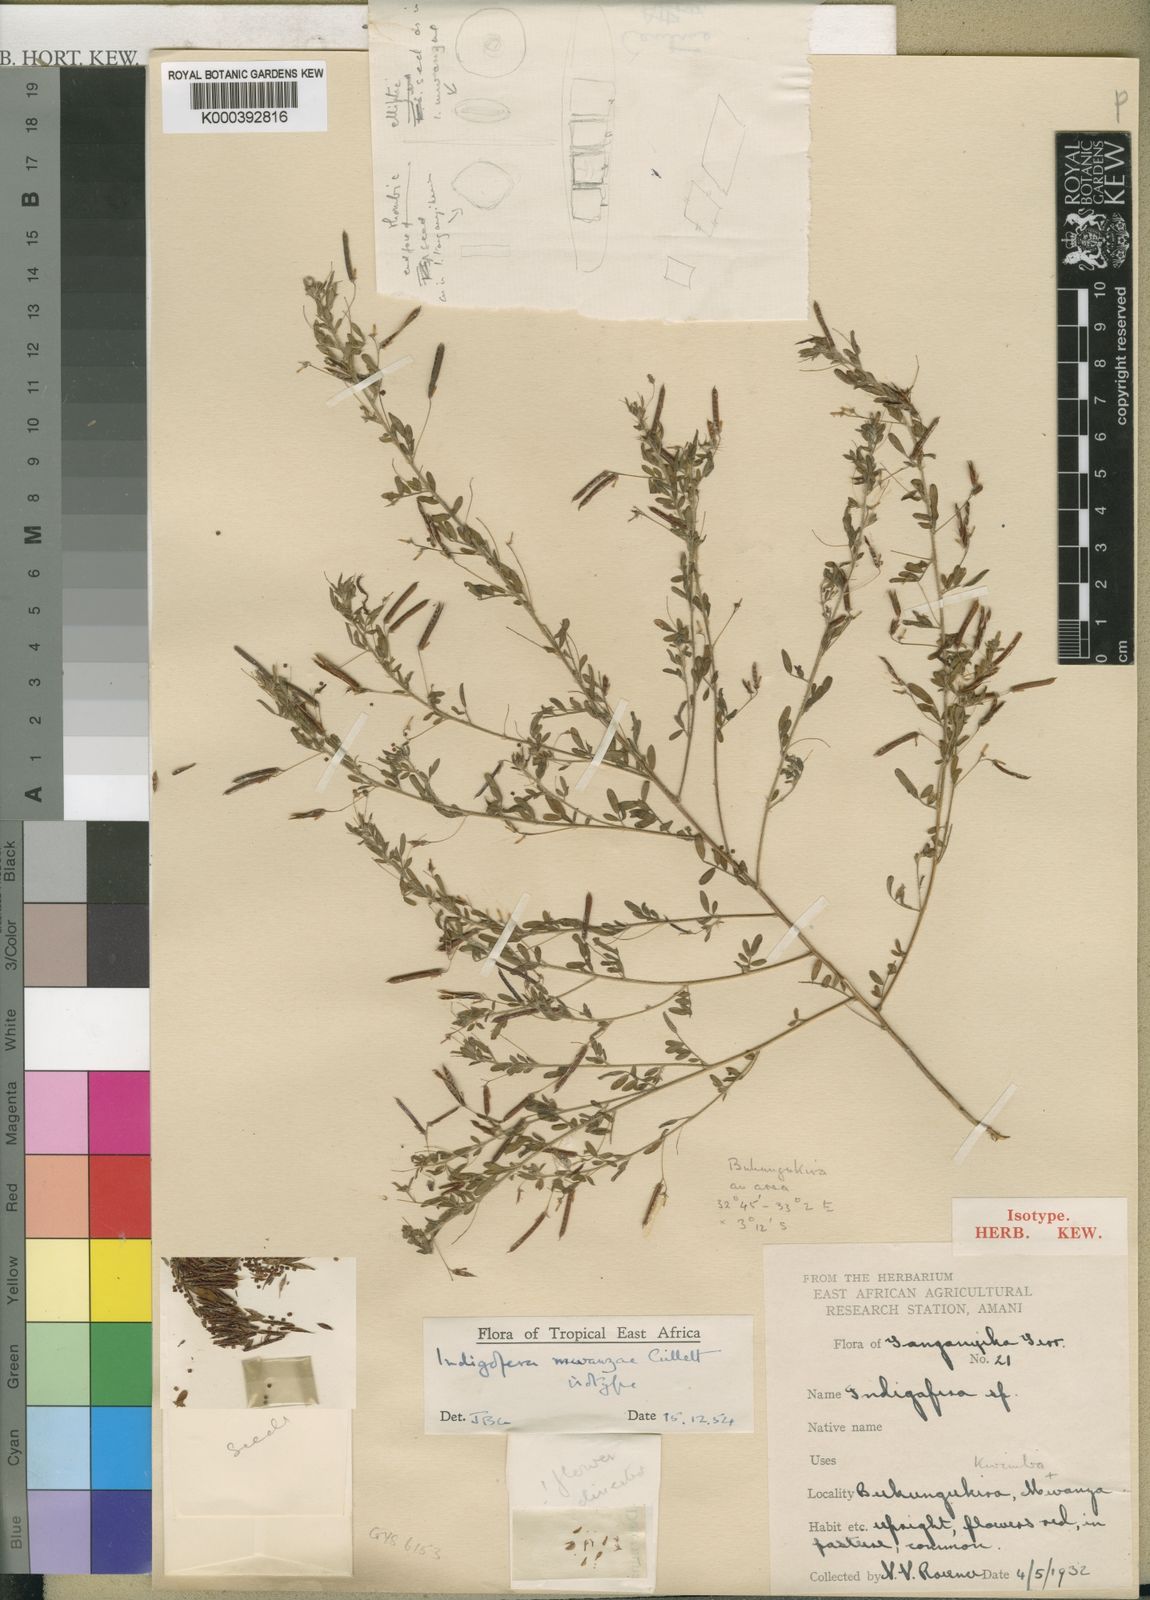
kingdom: Plantae
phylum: Tracheophyta
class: Magnoliopsida
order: Fabales
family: Fabaceae
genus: Indigofera
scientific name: Indigofera mwanzae
